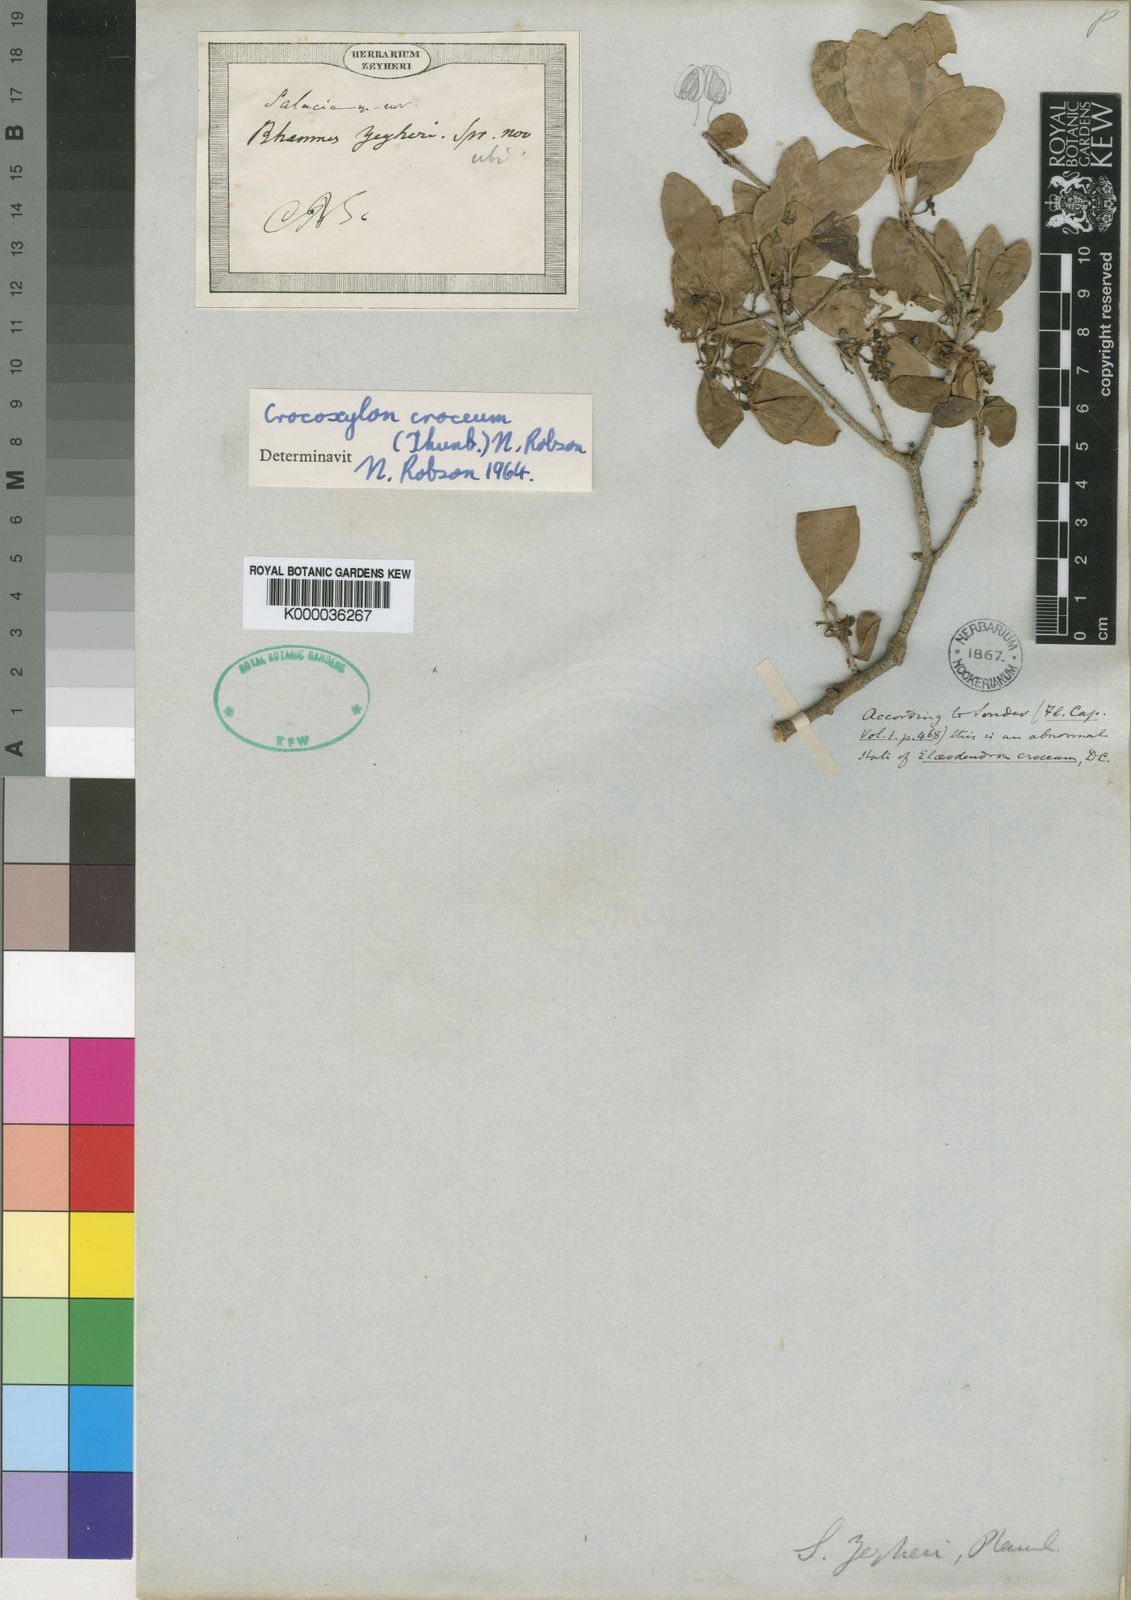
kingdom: Plantae
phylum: Tracheophyta
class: Magnoliopsida
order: Celastrales
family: Celastraceae
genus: Salacia
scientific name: Salacia
